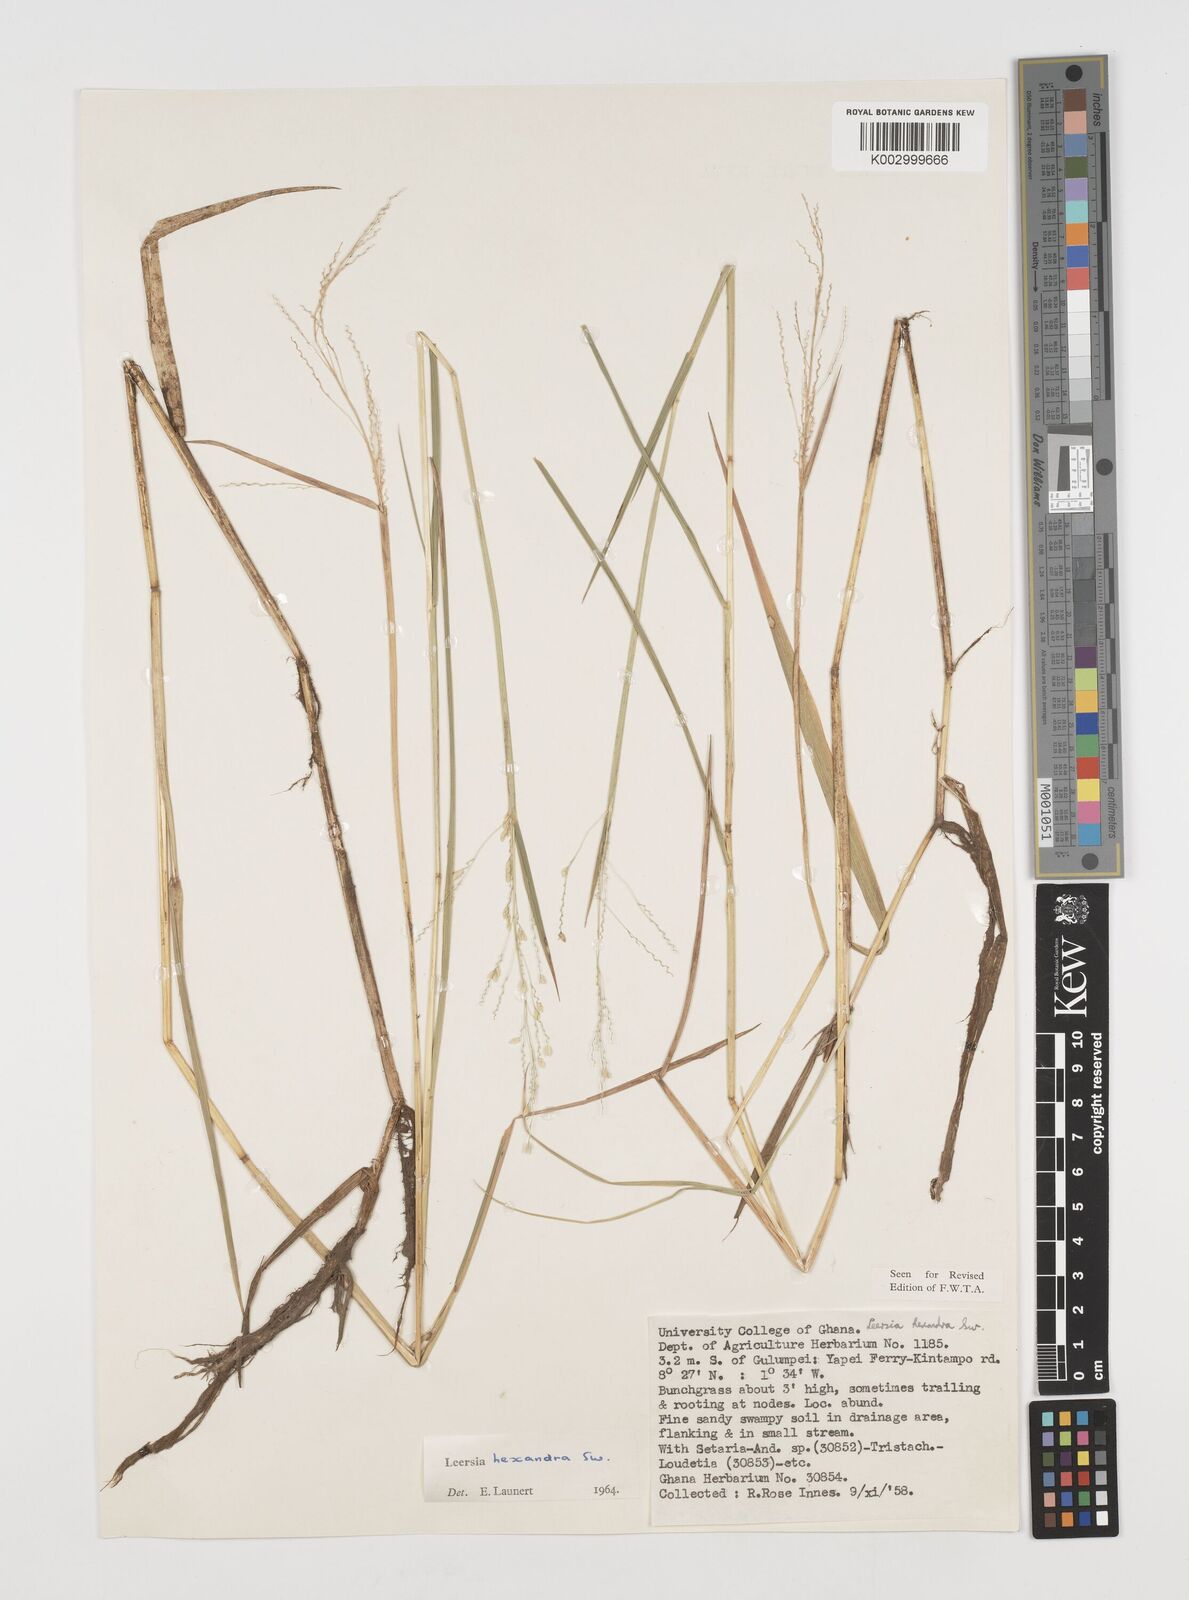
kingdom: Plantae
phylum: Tracheophyta
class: Liliopsida
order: Poales
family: Poaceae
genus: Leersia
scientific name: Leersia hexandra
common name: Southern cut grass
